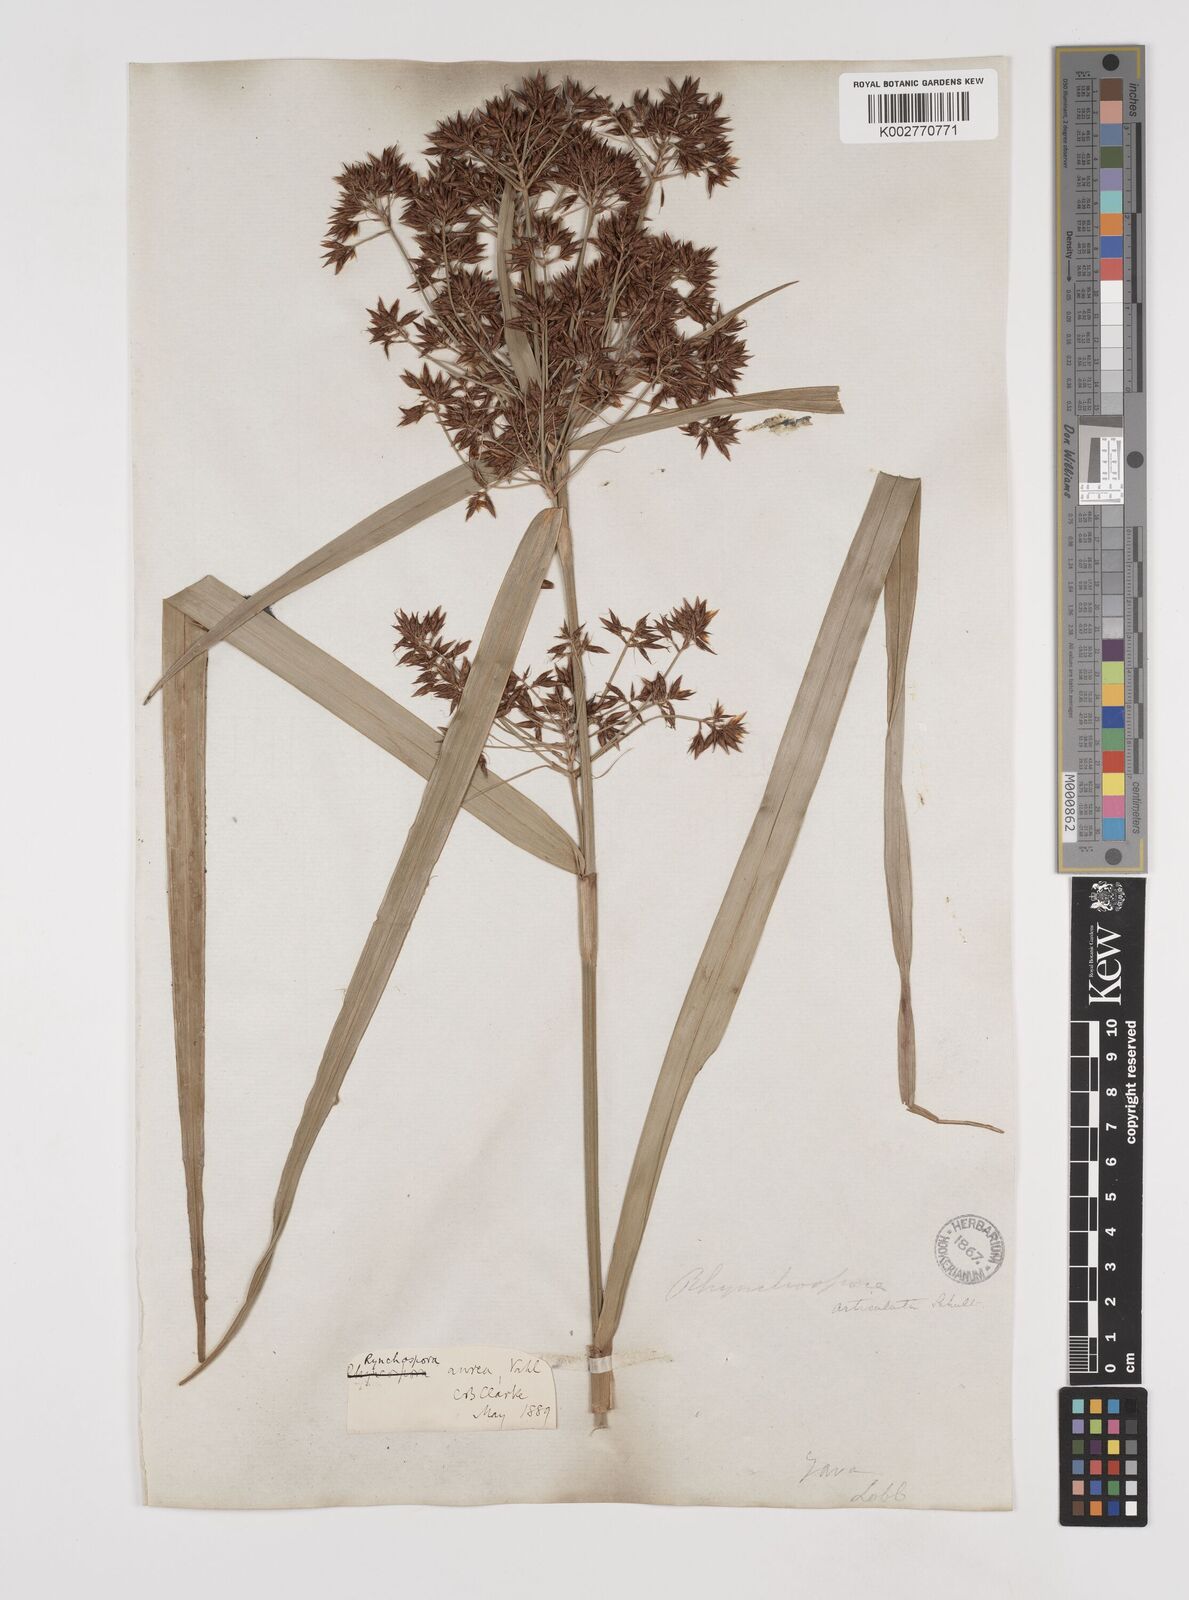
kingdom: Plantae
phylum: Tracheophyta
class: Liliopsida
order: Poales
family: Cyperaceae
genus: Rhynchospora
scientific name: Rhynchospora corymbosa
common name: Golden beak sedge
